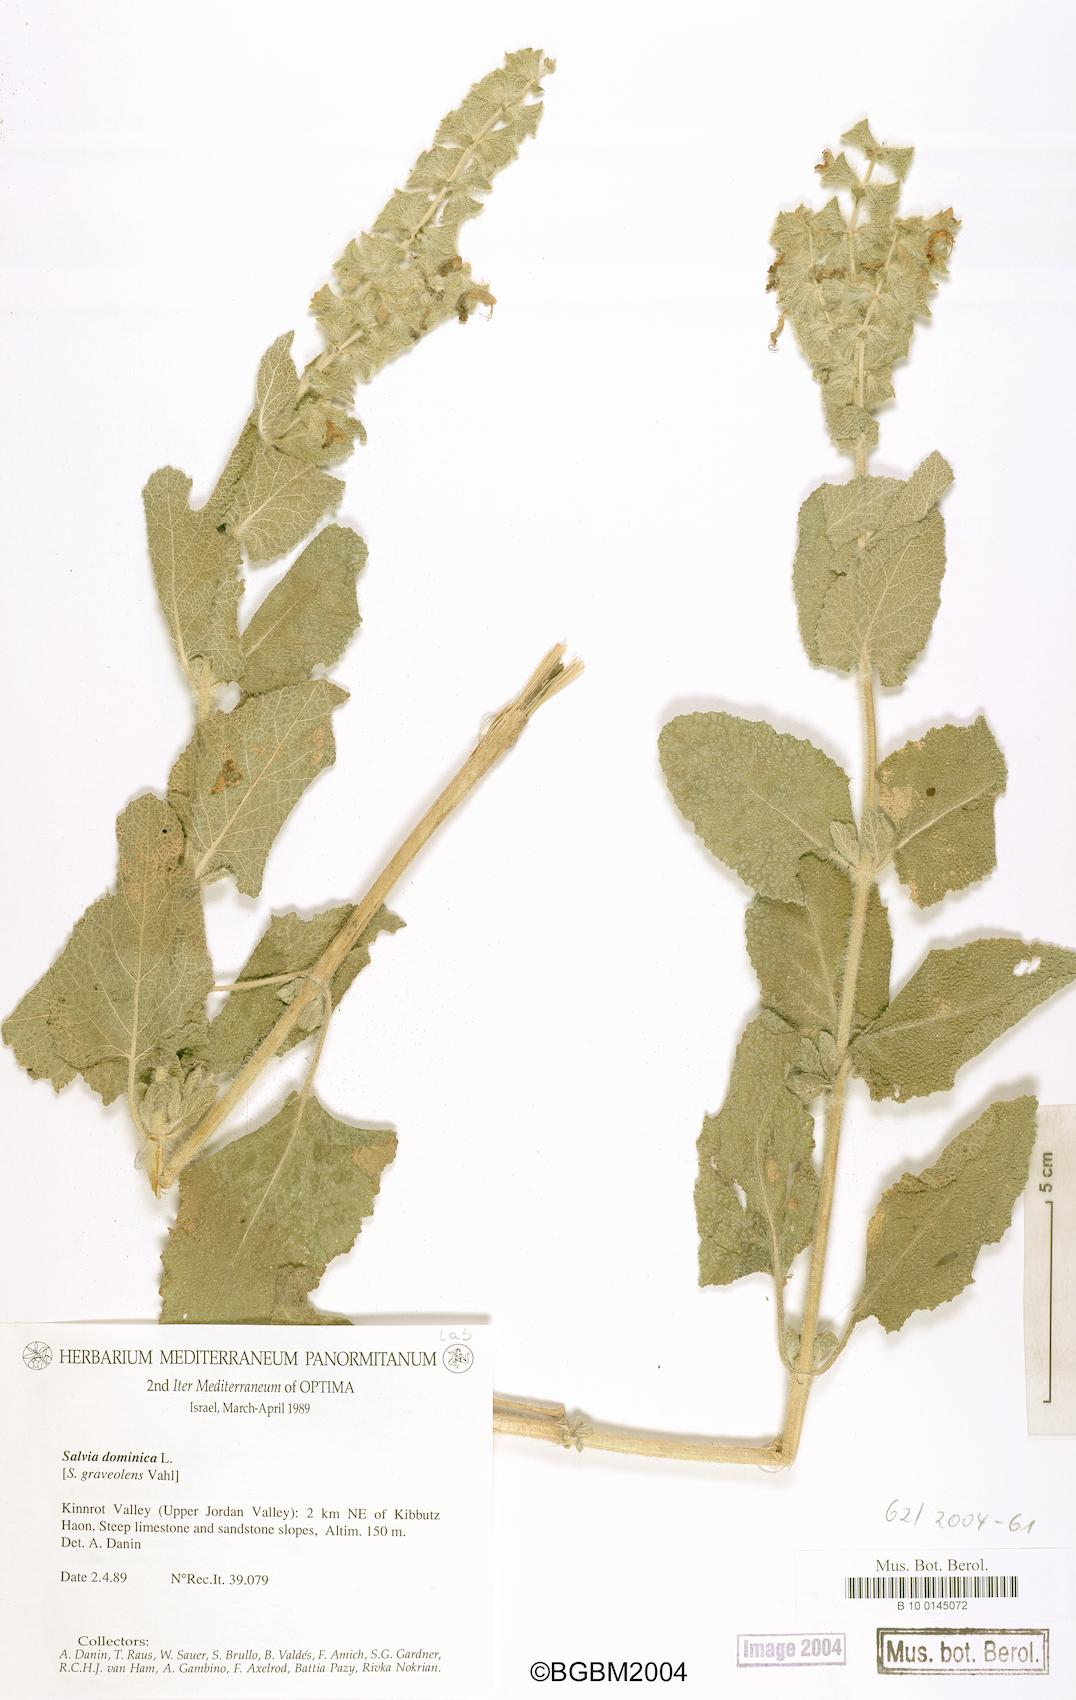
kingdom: Plantae
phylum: Tracheophyta
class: Magnoliopsida
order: Lamiales
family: Lamiaceae
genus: Salvia
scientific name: Salvia dominica
